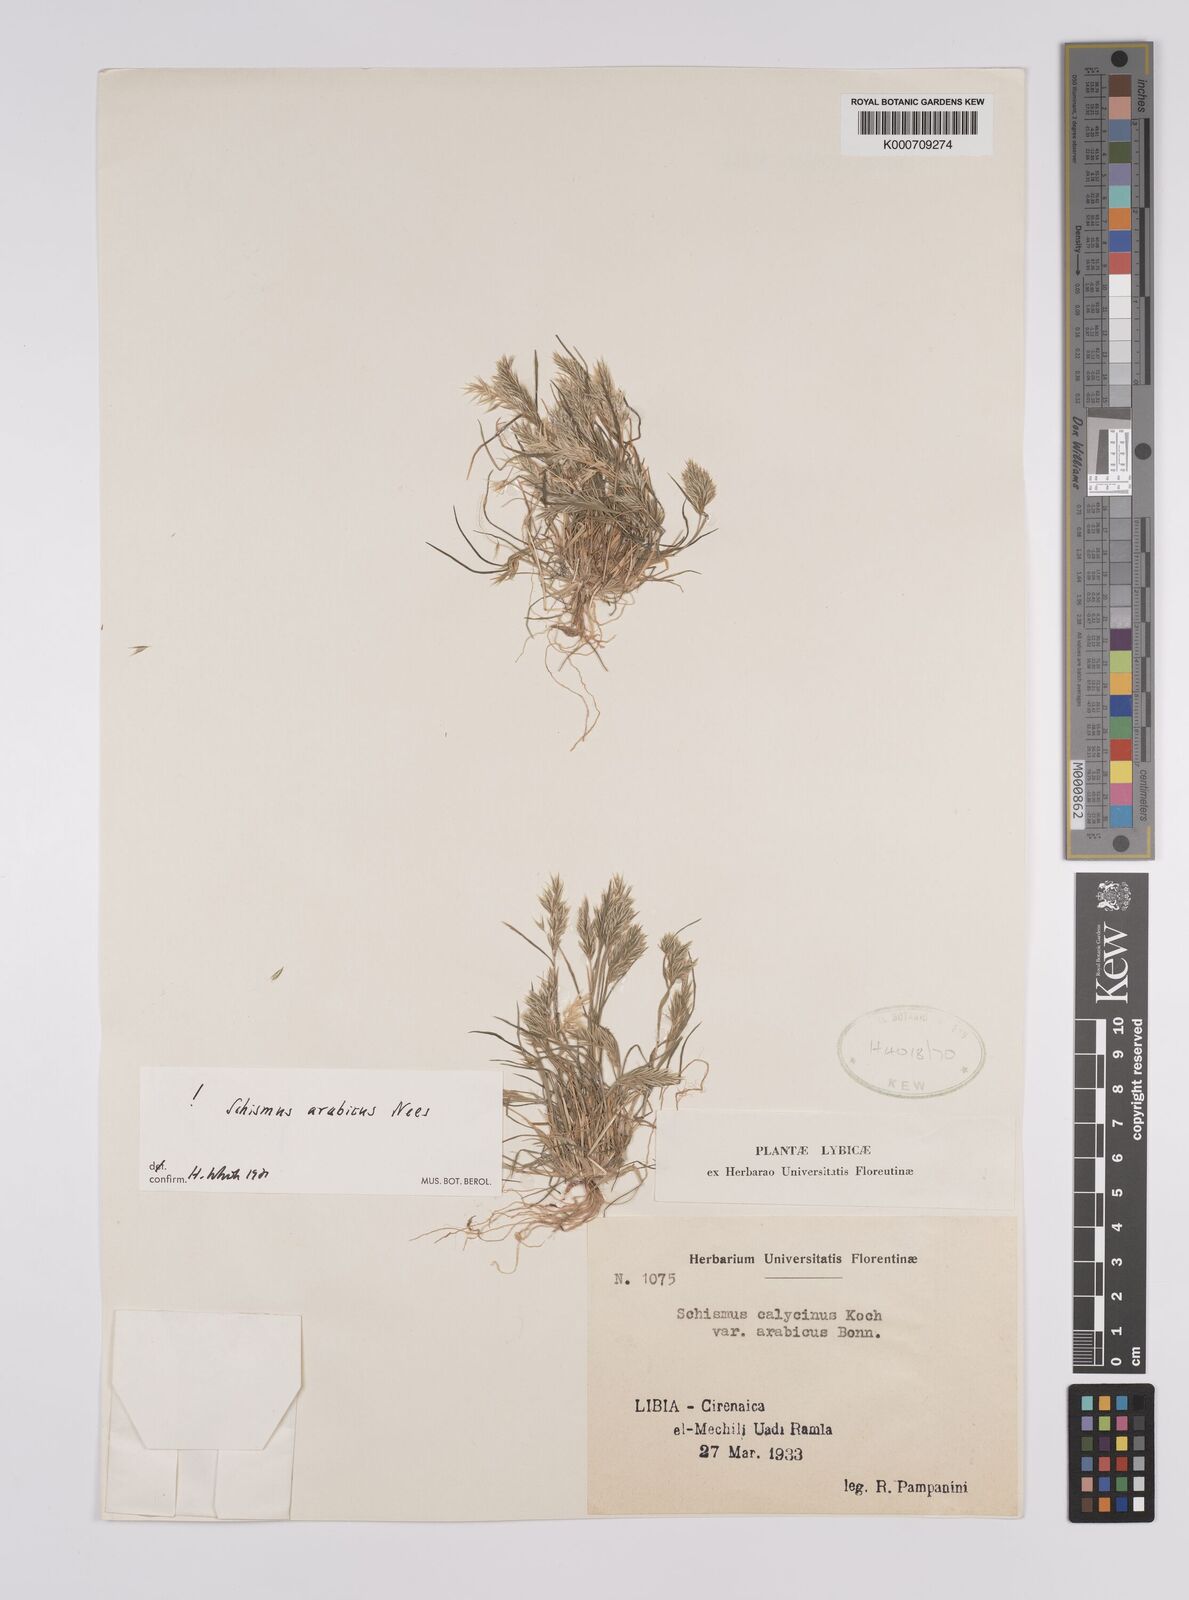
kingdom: Plantae
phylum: Tracheophyta
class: Liliopsida
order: Poales
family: Poaceae
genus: Schismus
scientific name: Schismus arabicus
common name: Arabian schismus
